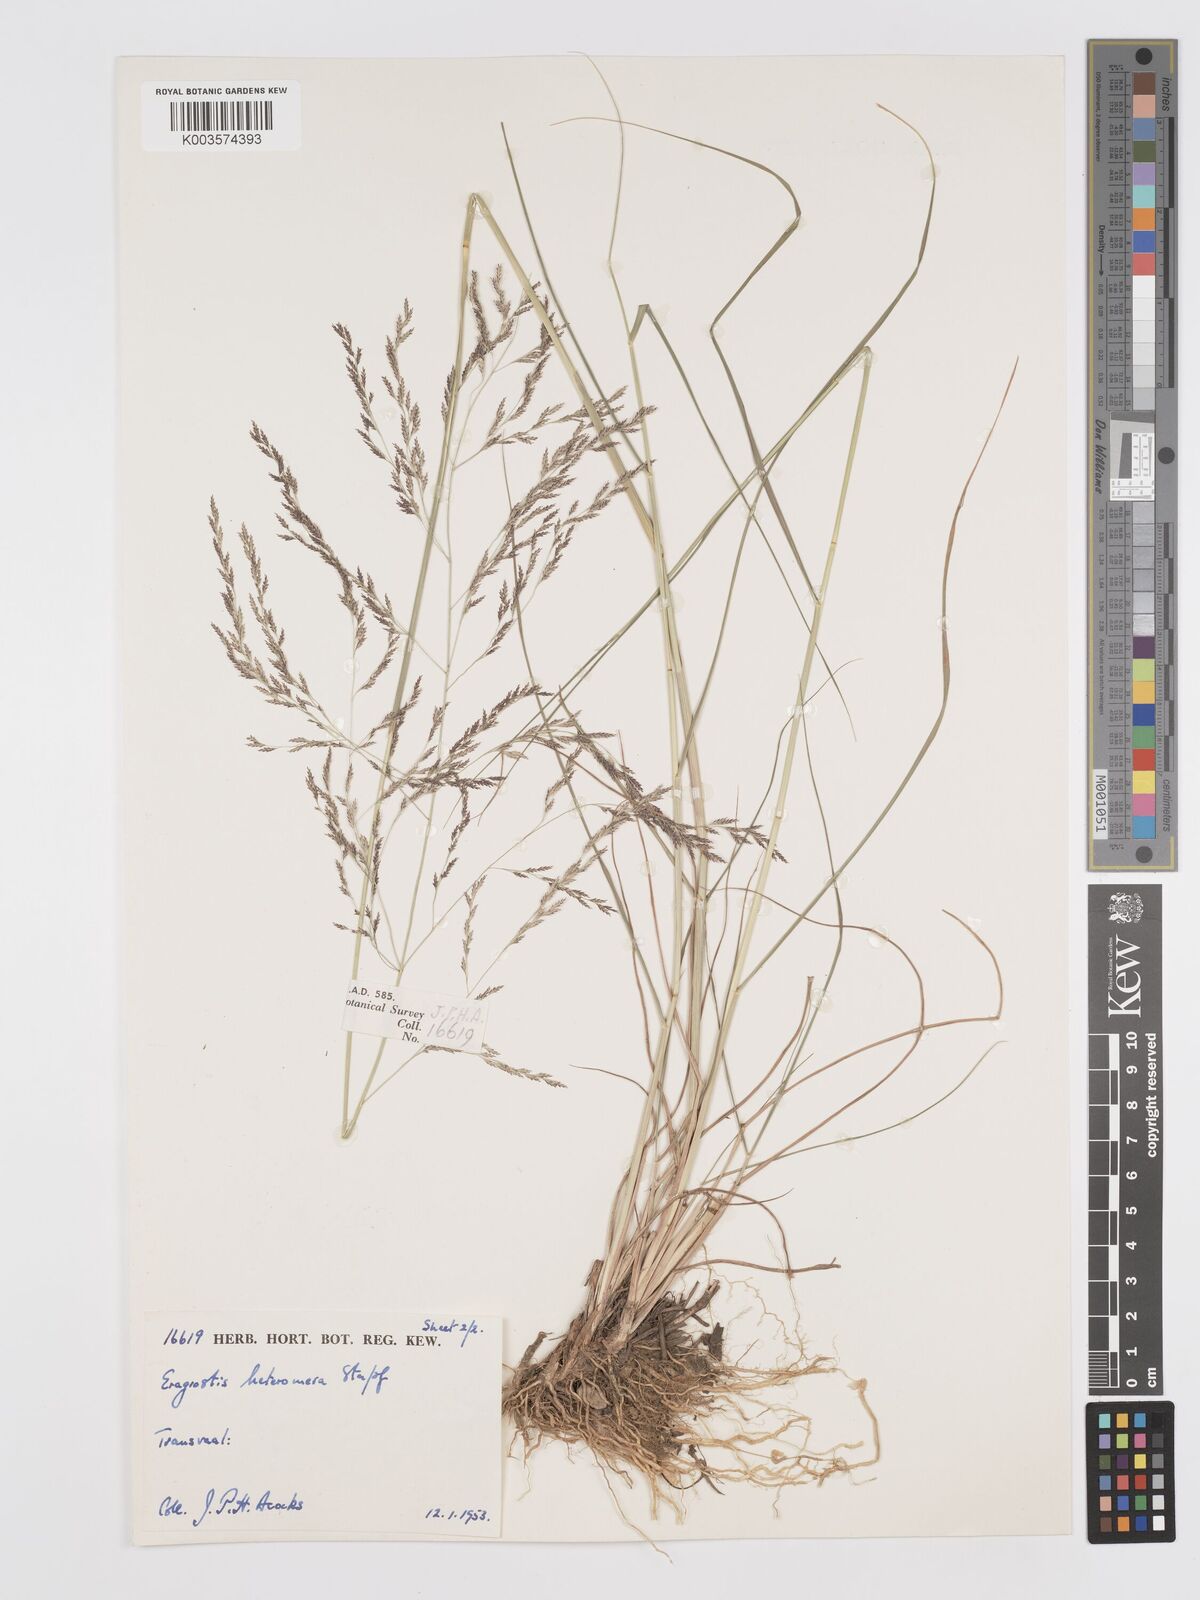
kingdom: Plantae
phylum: Tracheophyta
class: Liliopsida
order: Poales
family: Poaceae
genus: Eragrostis
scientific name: Eragrostis heteromera
